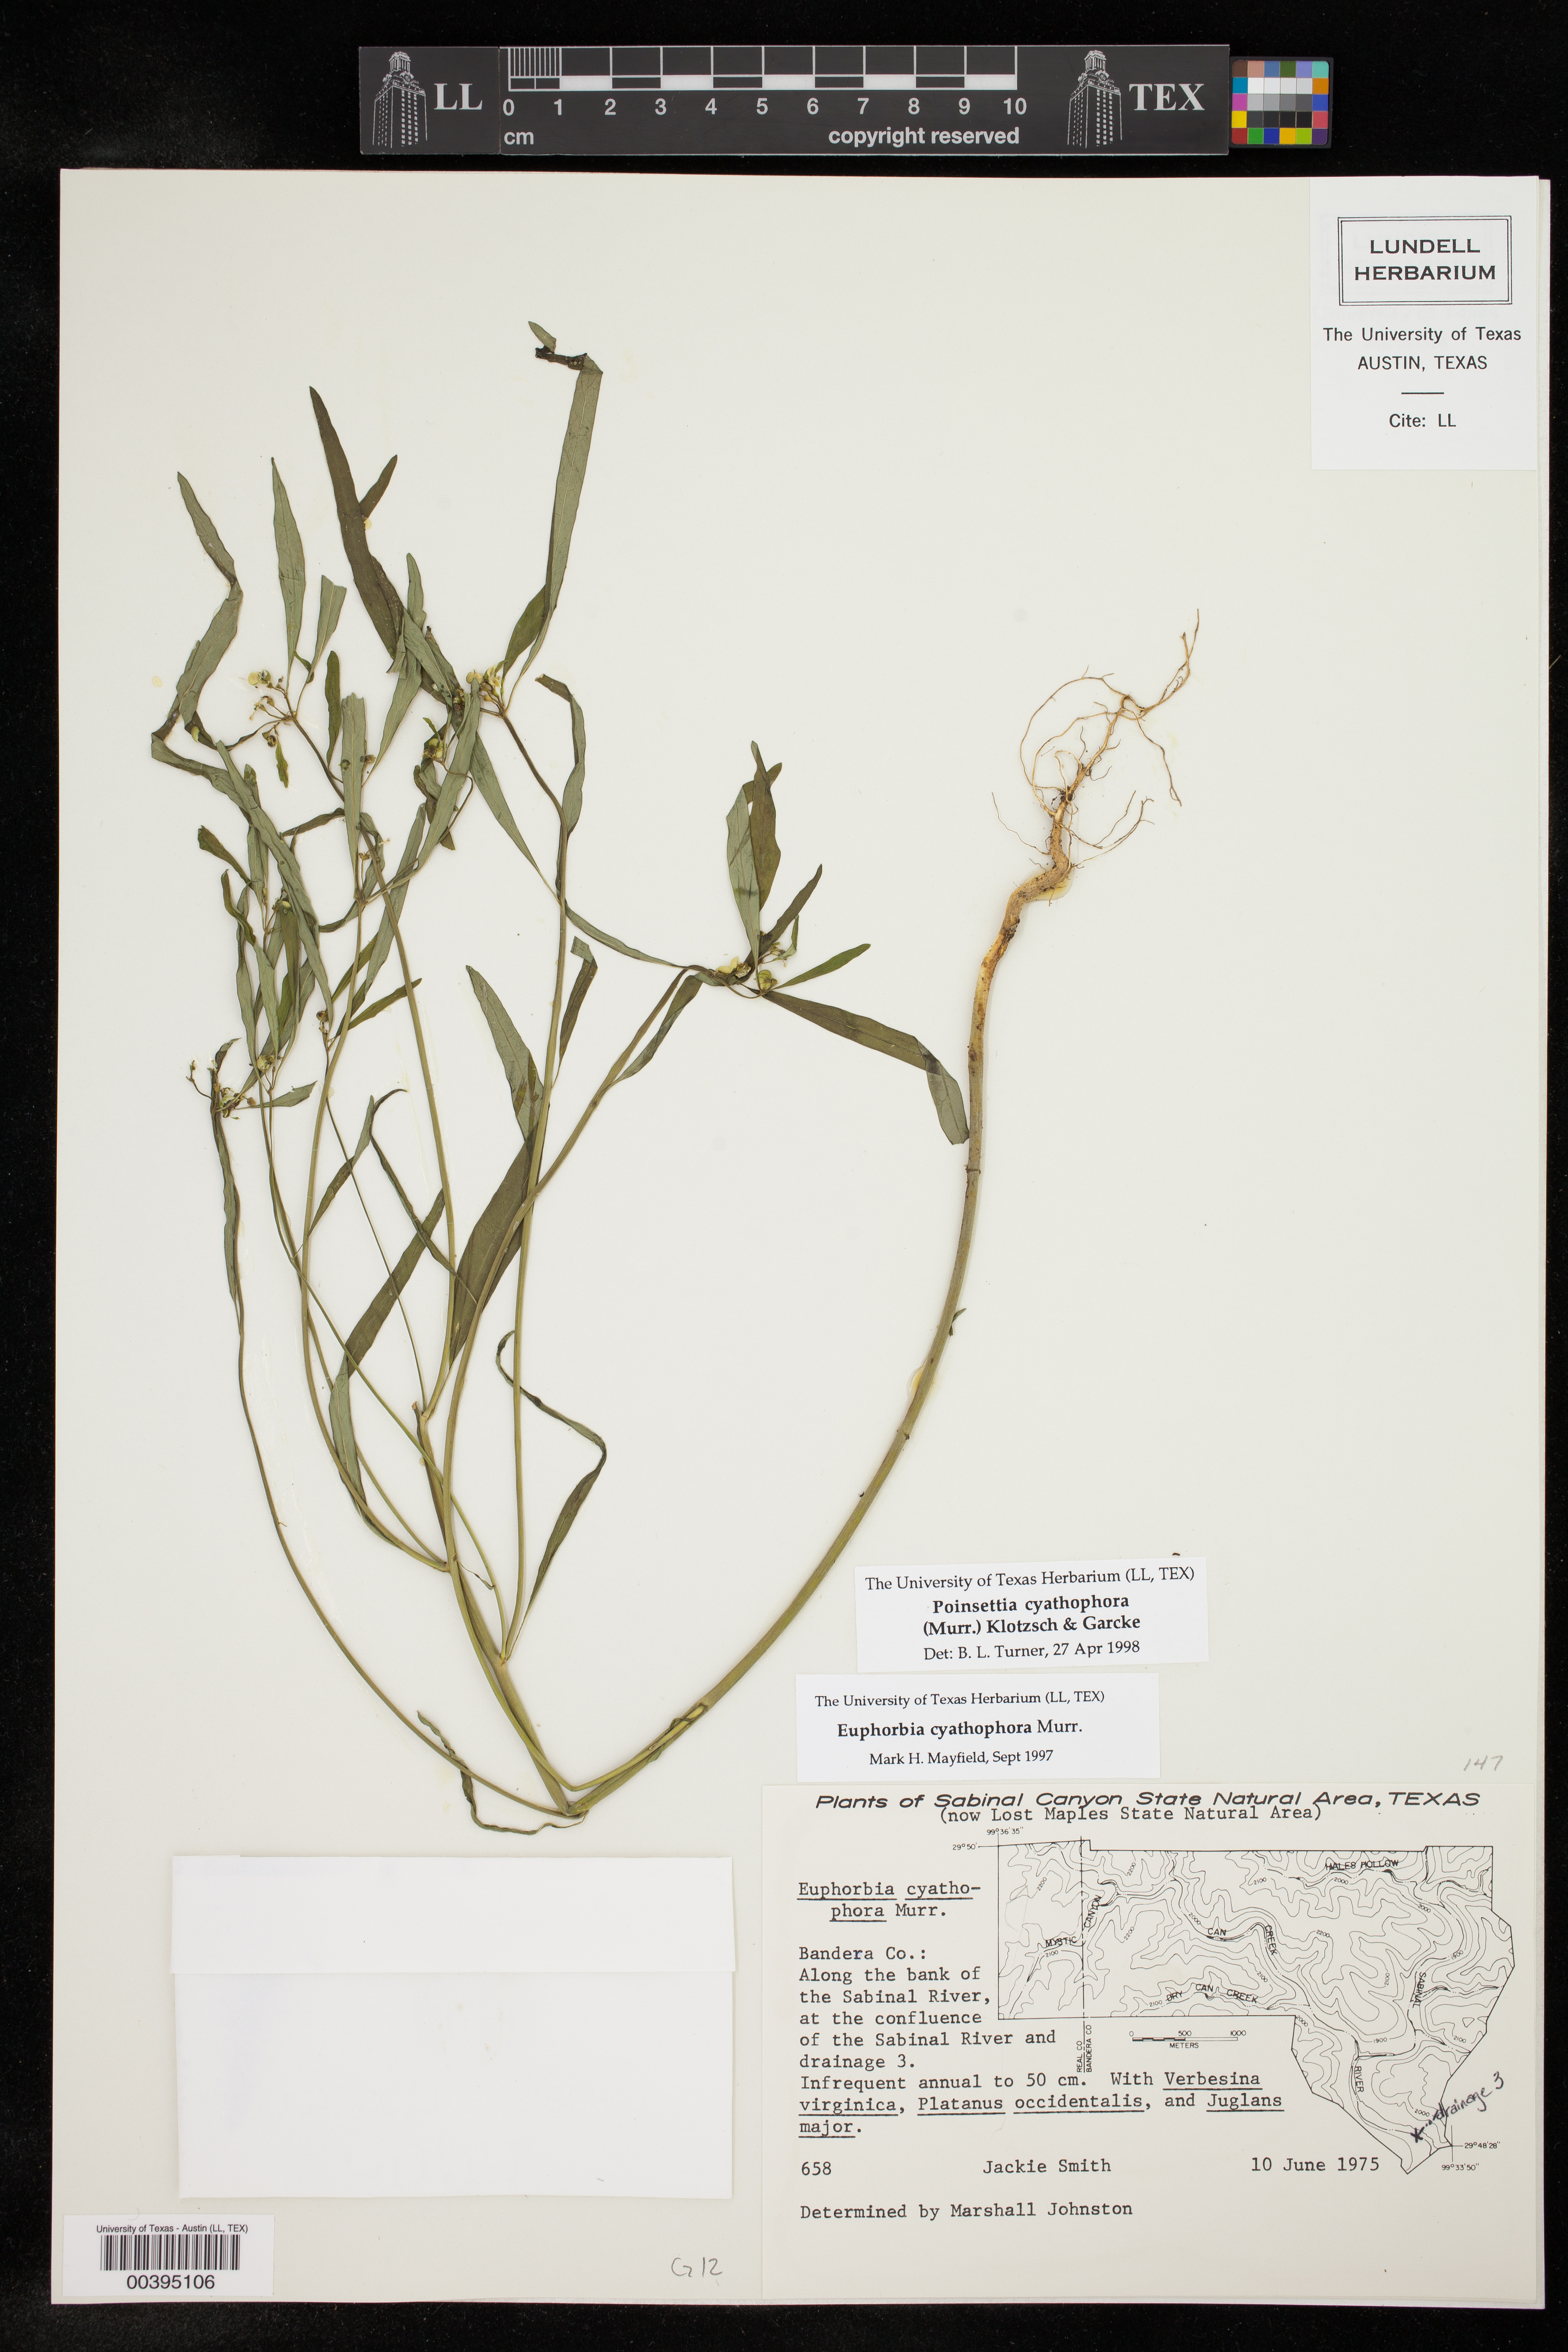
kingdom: Plantae
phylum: Tracheophyta
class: Magnoliopsida
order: Malpighiales
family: Euphorbiaceae
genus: Euphorbia
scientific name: Euphorbia heterophylla
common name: Mexican fireplant
